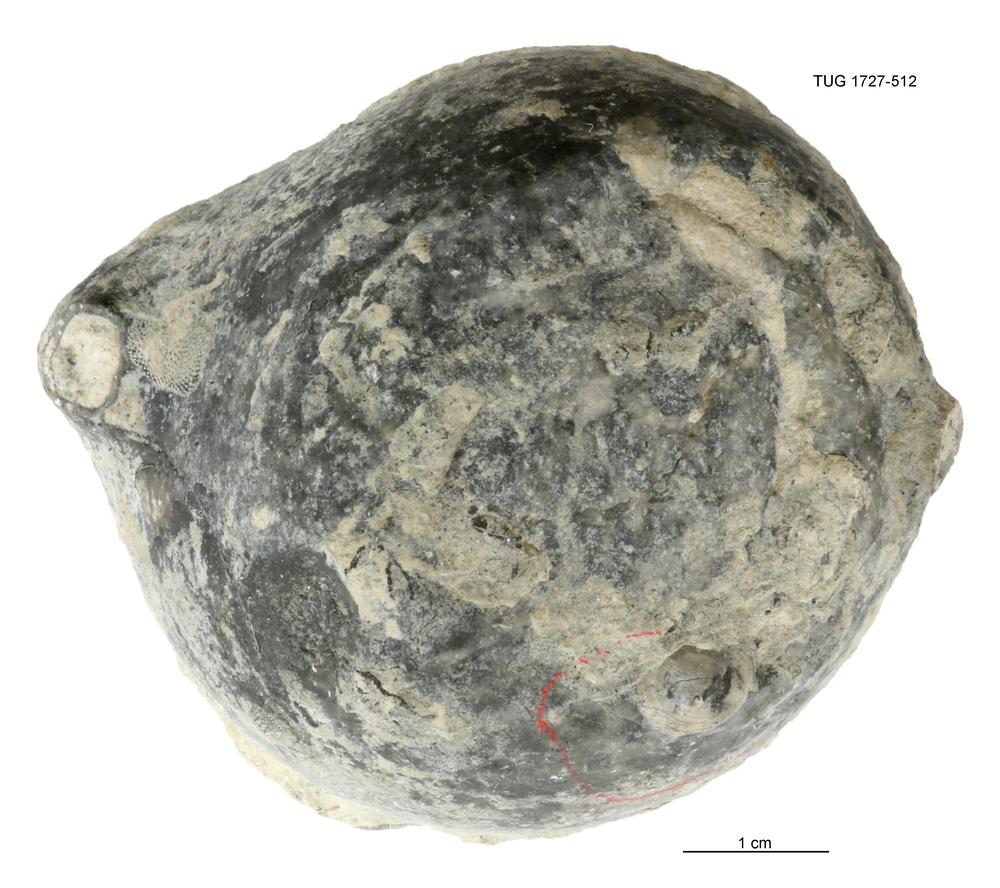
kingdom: Animalia
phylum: Echinodermata
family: Echinosphaeritidae
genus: Echinosphaerites
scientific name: Echinosphaerites
